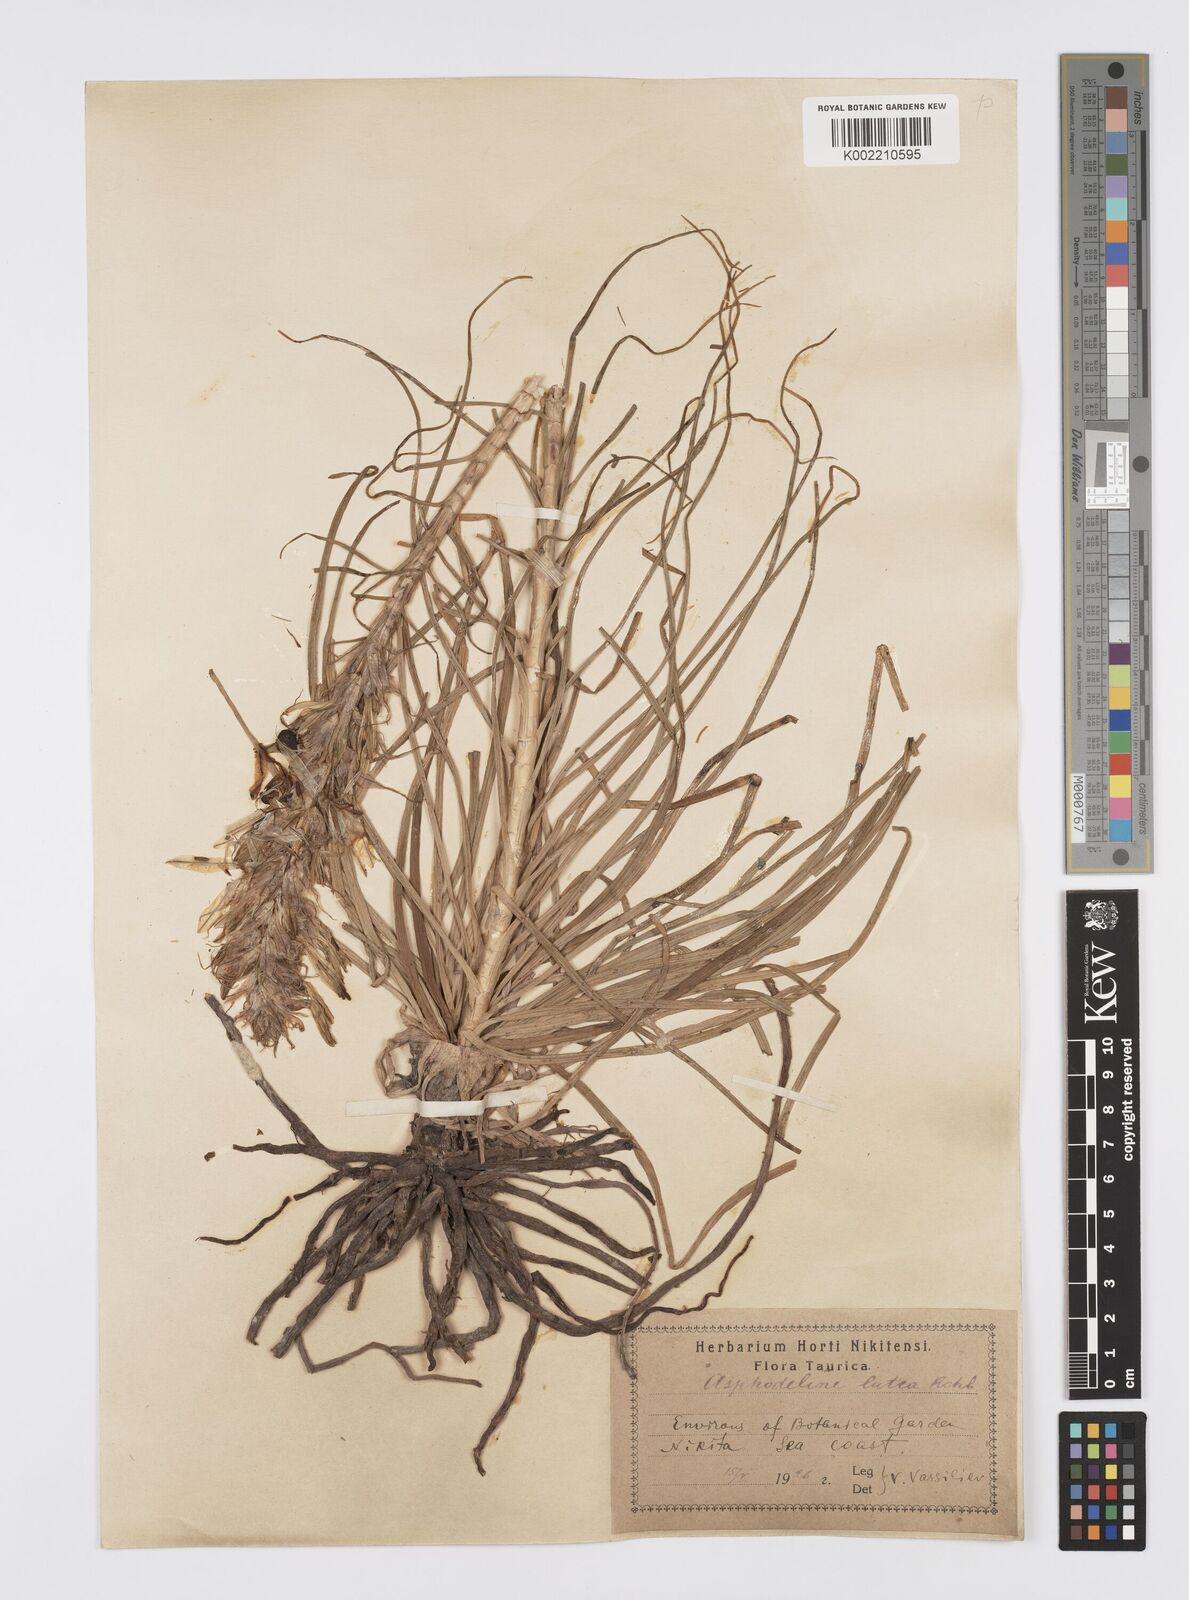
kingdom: Plantae
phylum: Tracheophyta
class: Liliopsida
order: Asparagales
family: Asphodelaceae
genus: Asphodeline
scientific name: Asphodeline lutea
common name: Yellow asphodel
